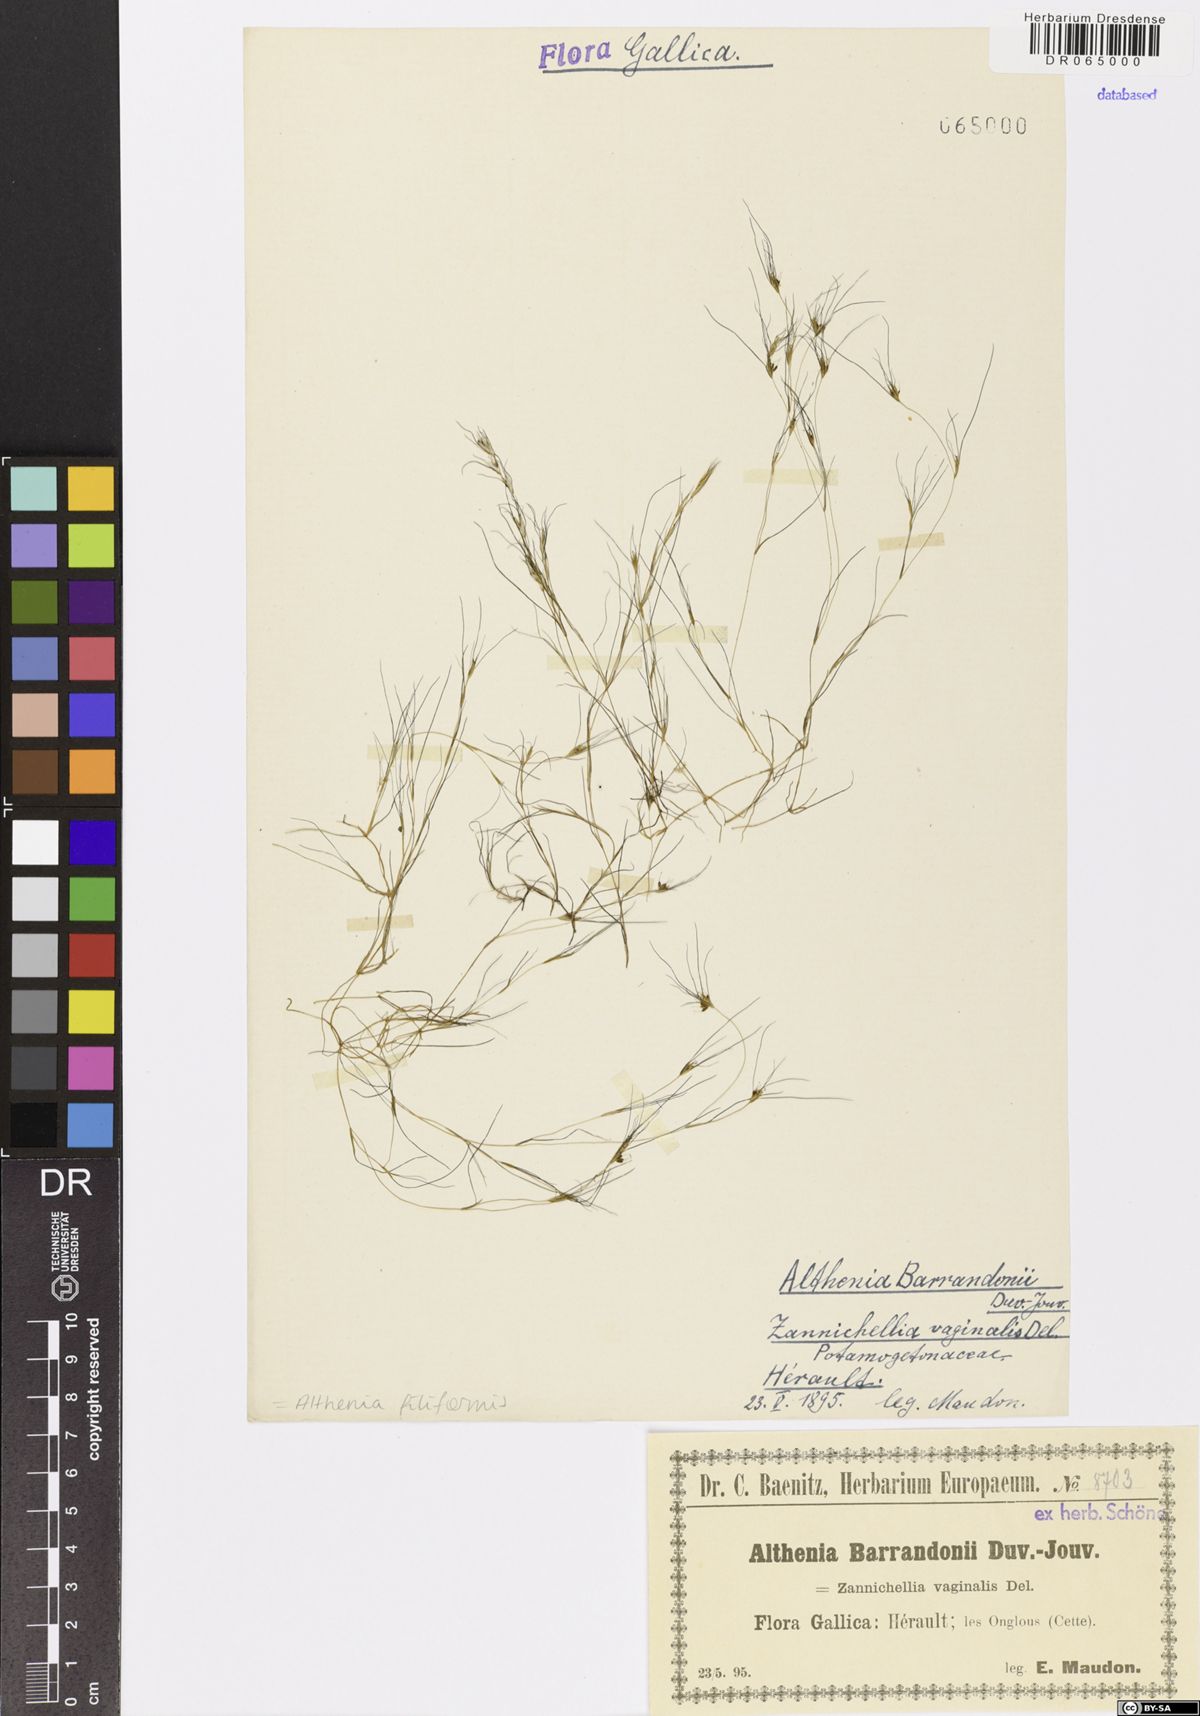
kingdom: Plantae
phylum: Tracheophyta
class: Liliopsida
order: Alismatales
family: Potamogetonaceae
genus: Althenia
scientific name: Althenia filiformis
